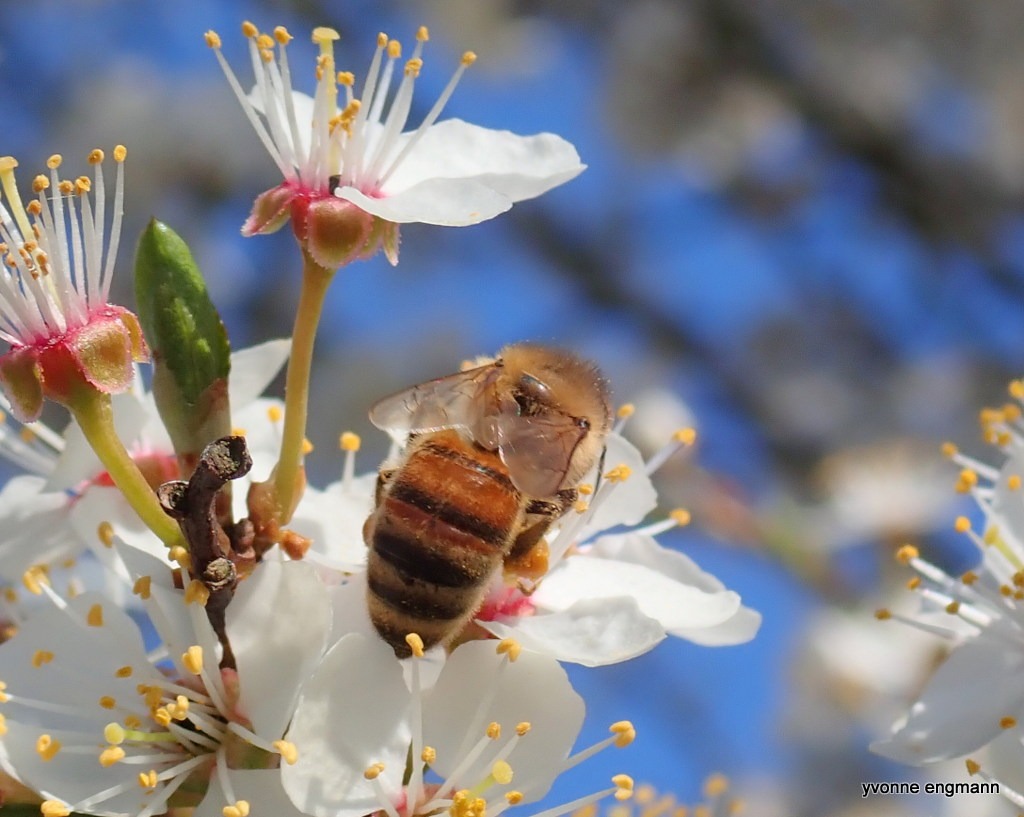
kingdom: Animalia
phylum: Arthropoda
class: Insecta
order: Hymenoptera
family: Apidae
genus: Apis
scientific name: Apis mellifera
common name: Honningbi
